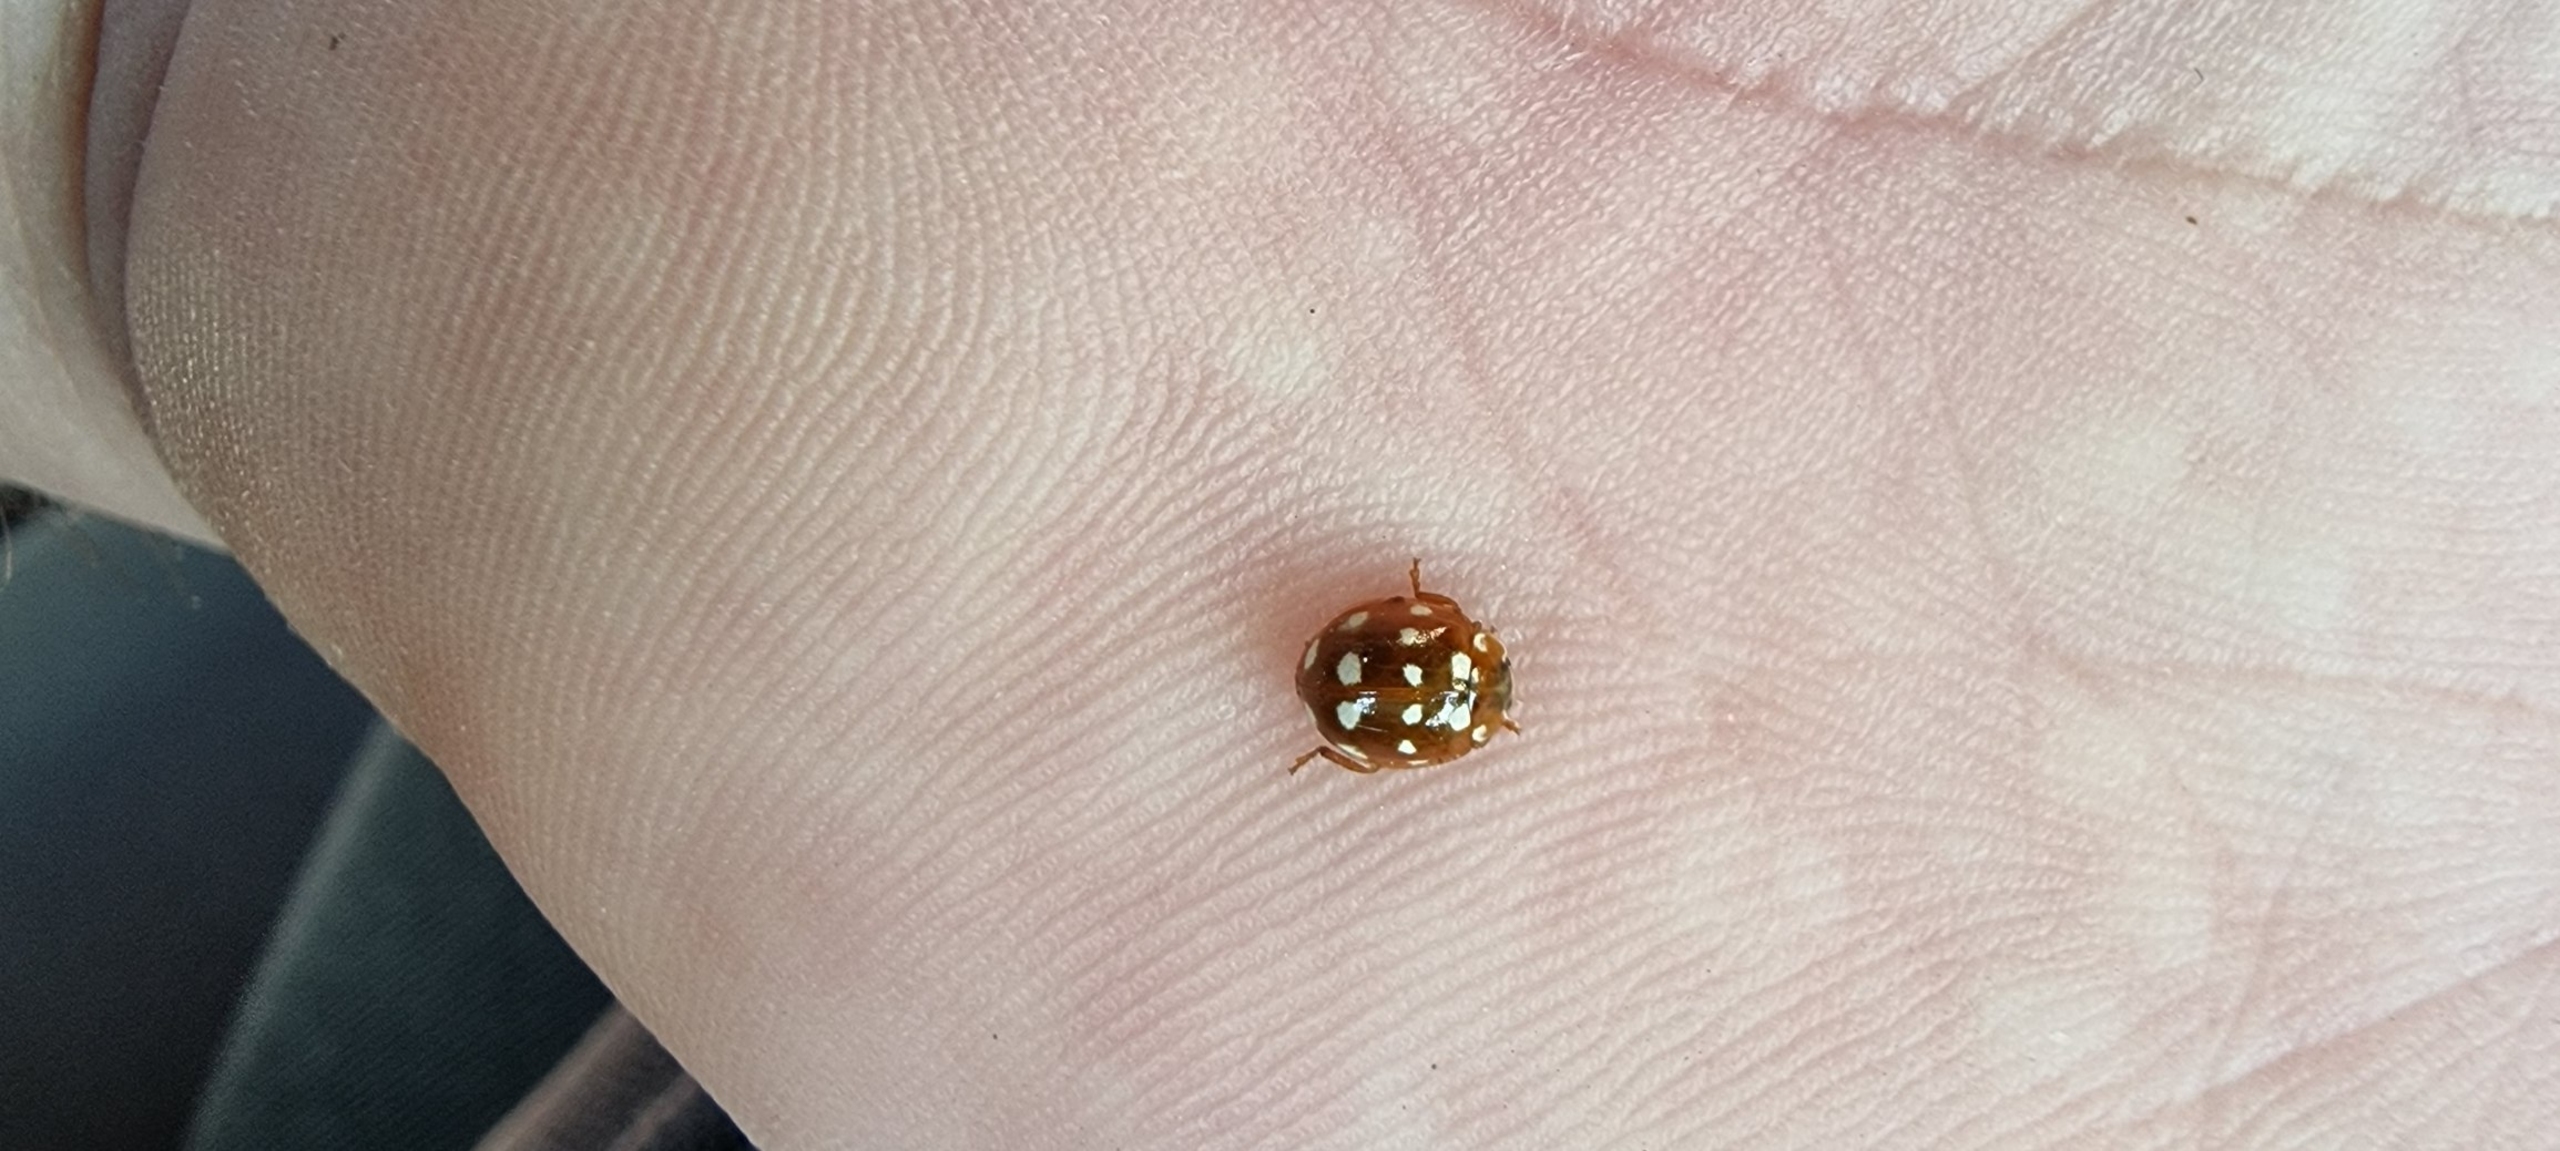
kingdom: Animalia
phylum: Arthropoda
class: Insecta
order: Coleoptera
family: Coccinellidae
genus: Calvia
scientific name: Calvia quatuordecimguttata
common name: Fjortenplettet mariehøne
